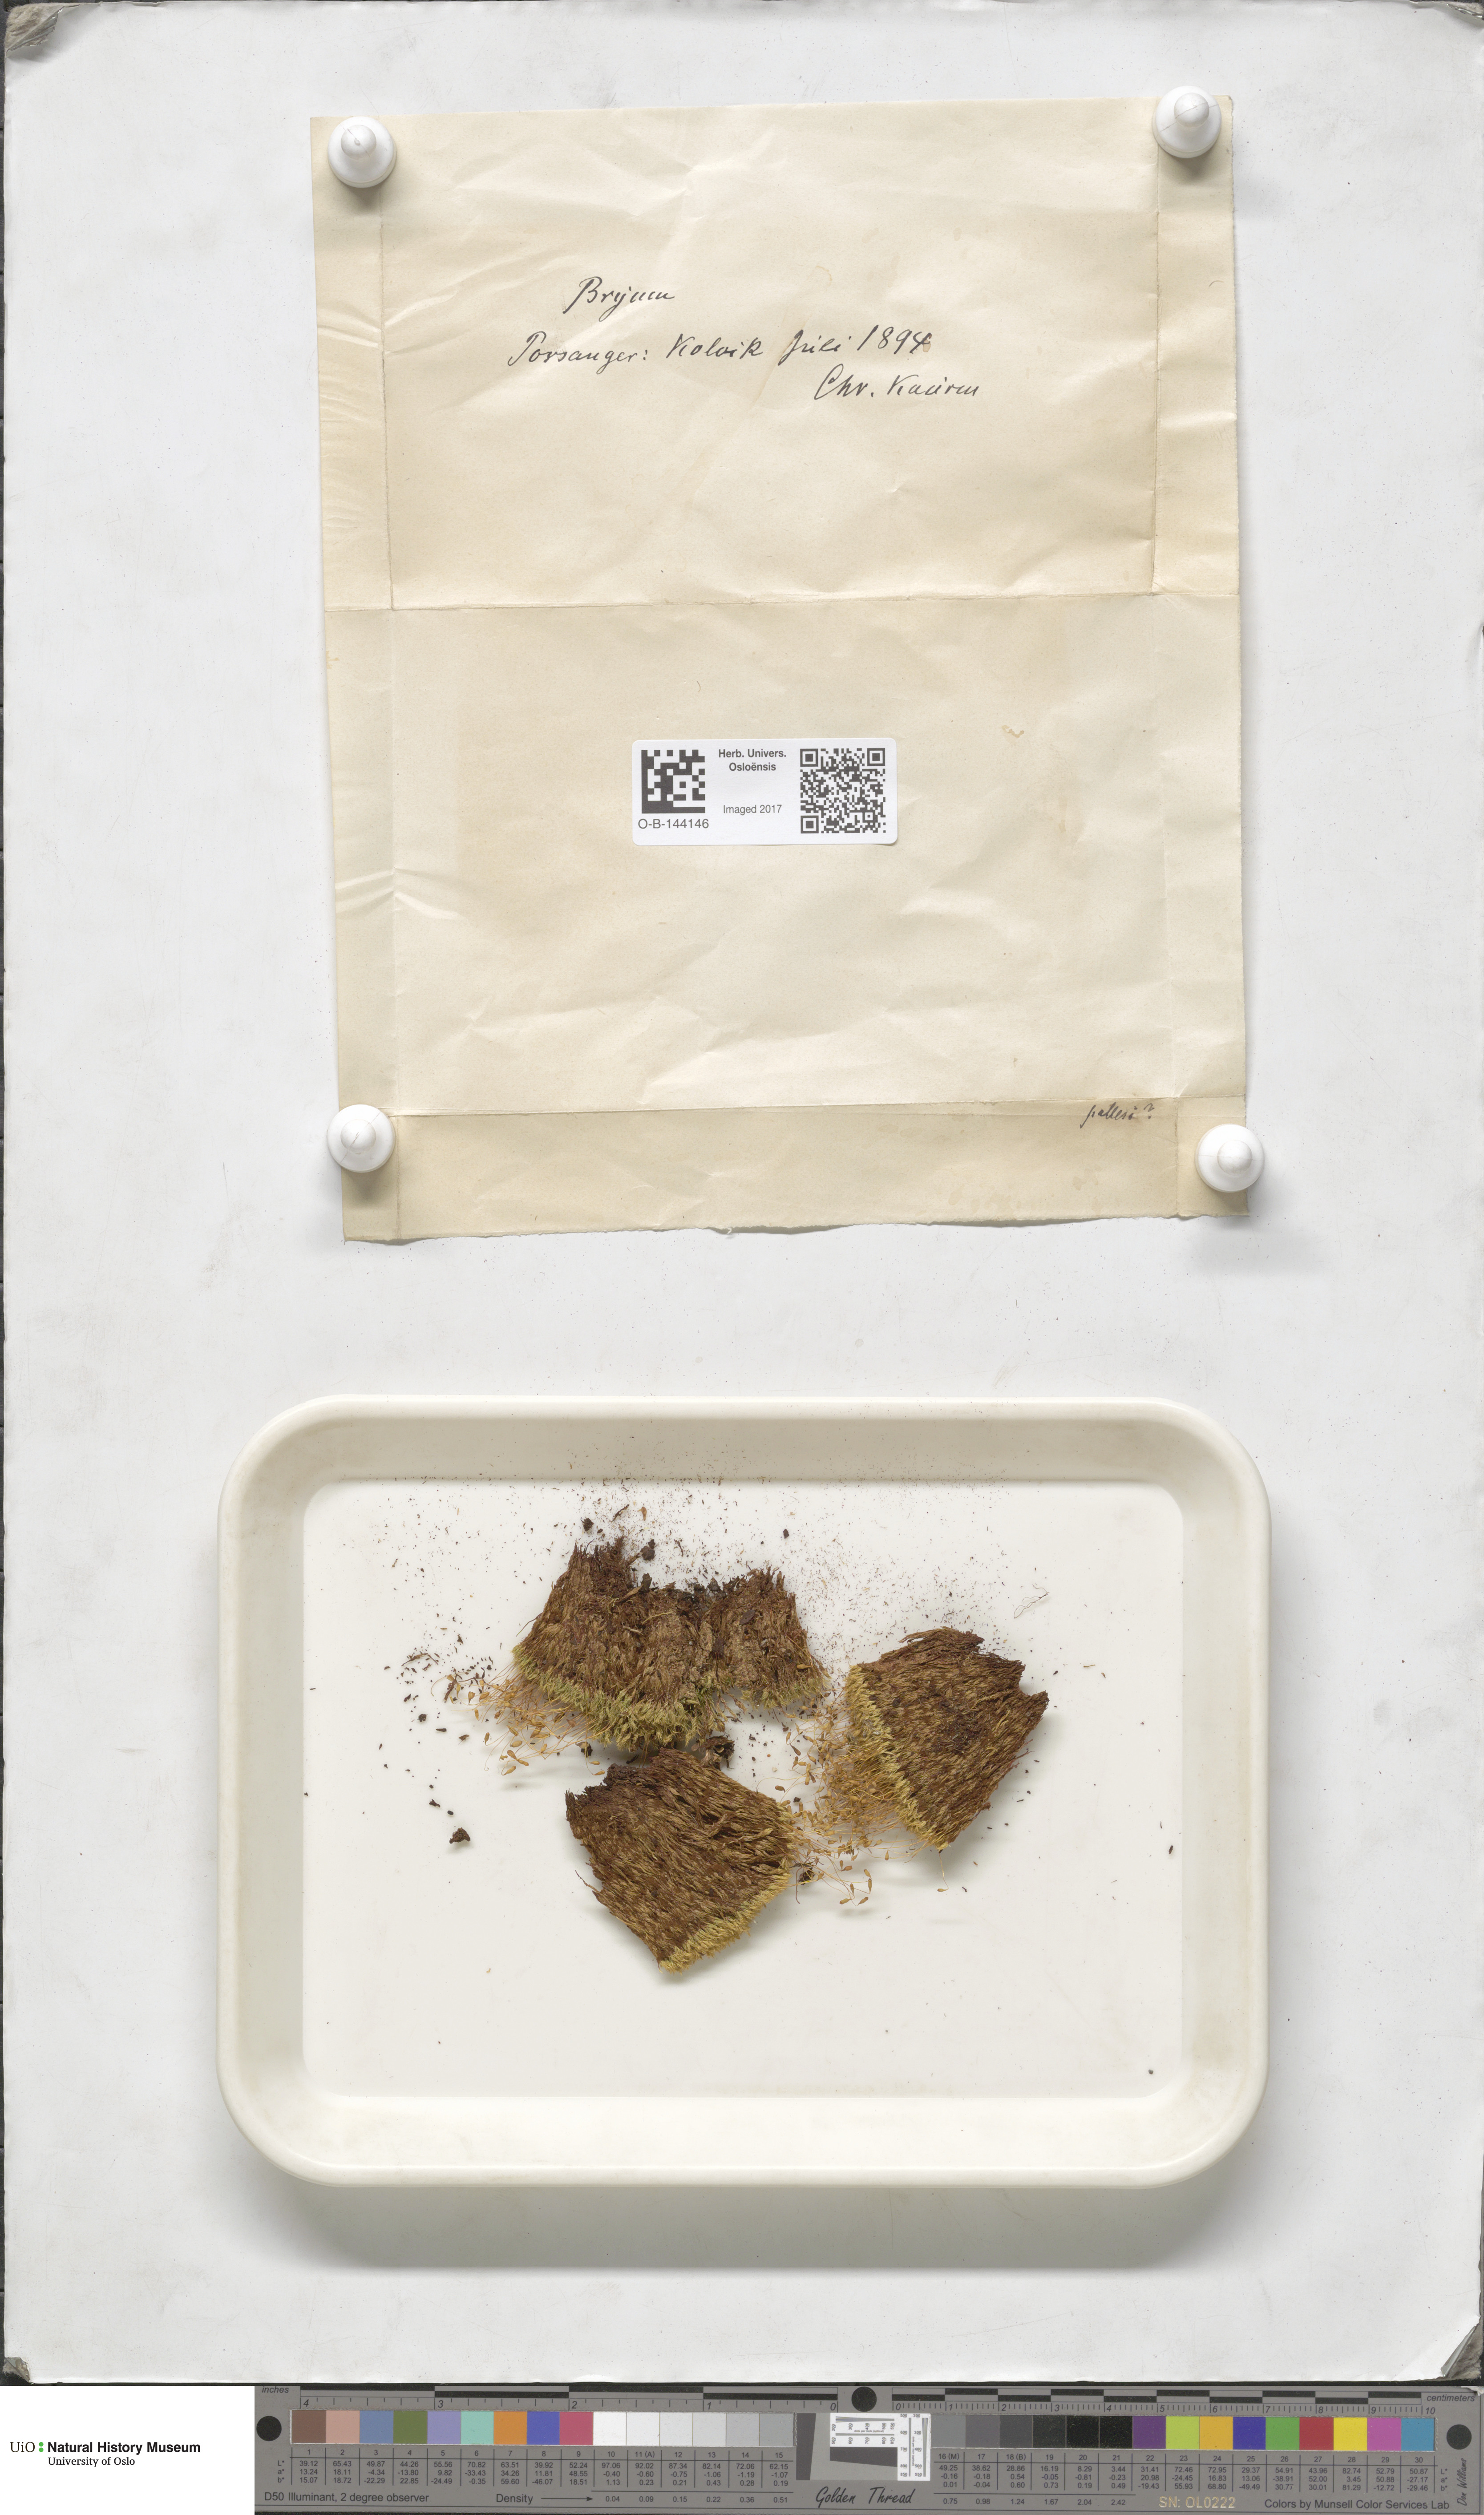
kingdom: Plantae
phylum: Bryophyta
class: Bryopsida
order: Bryales
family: Bryaceae
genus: Bryum
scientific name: Bryum
